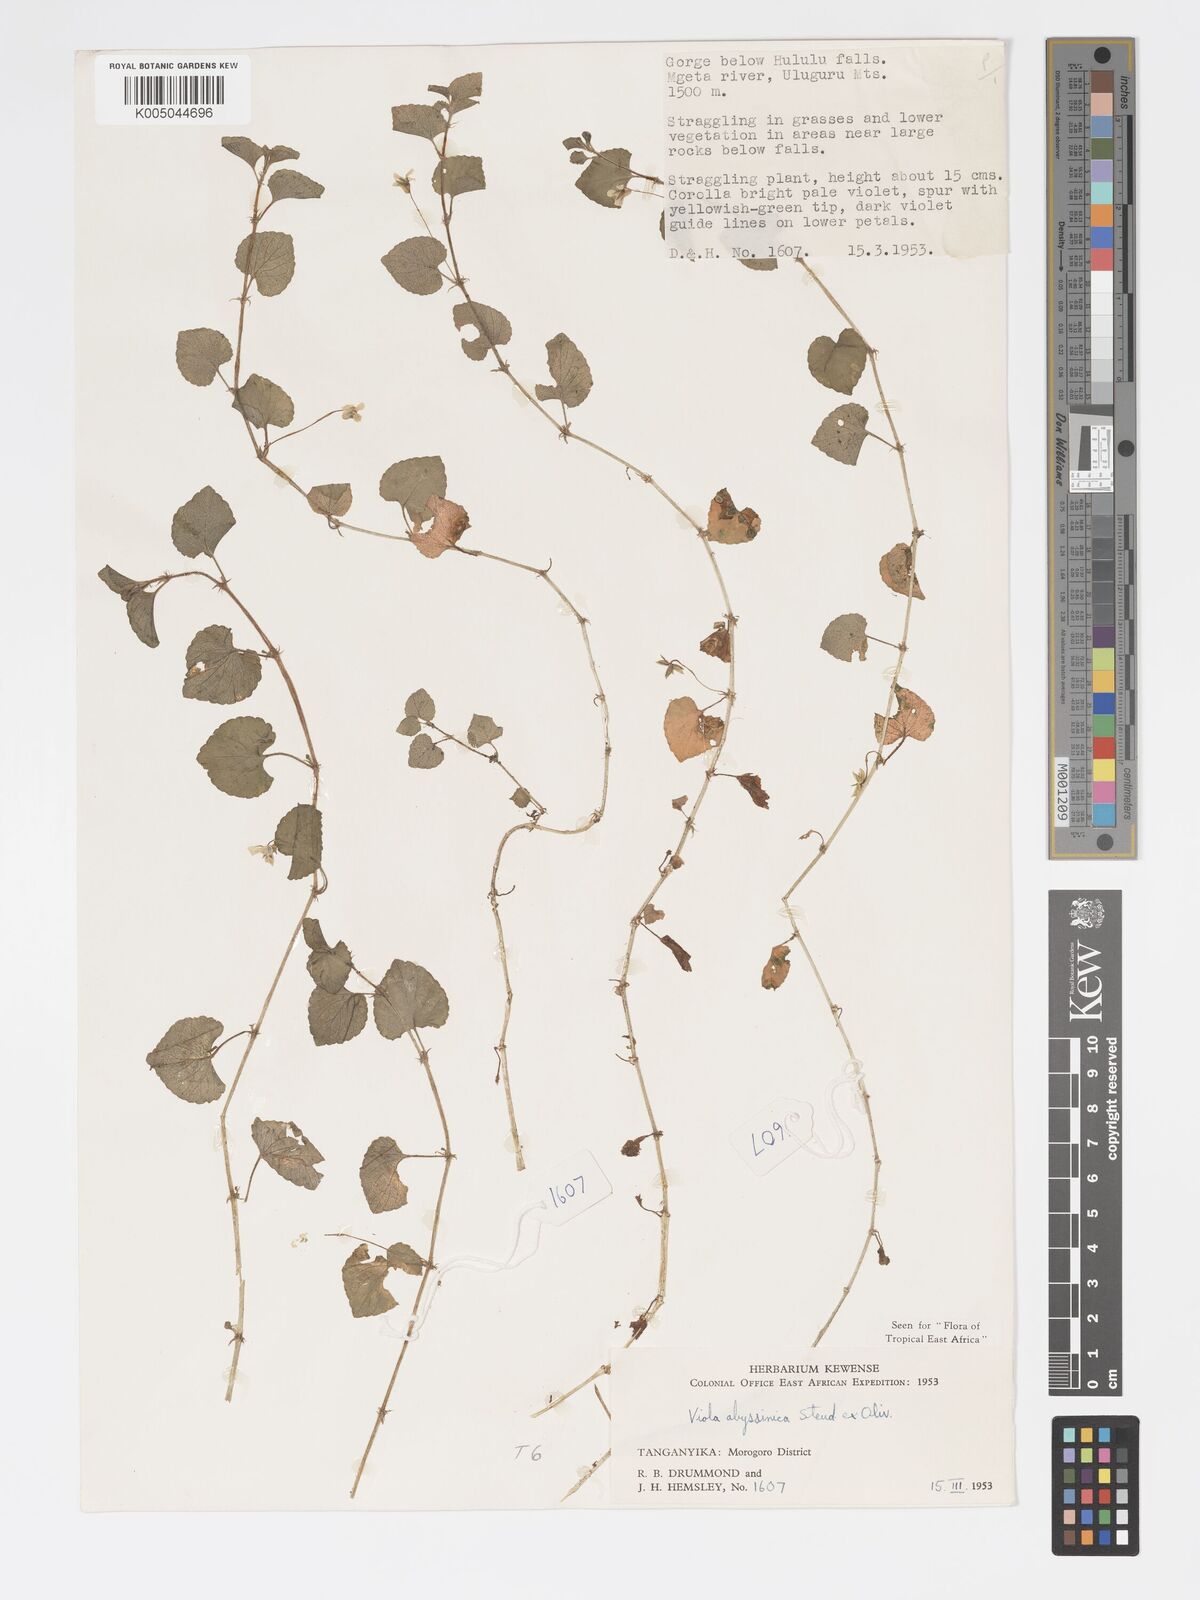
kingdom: Plantae
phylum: Tracheophyta
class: Magnoliopsida
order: Malpighiales
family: Violaceae
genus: Viola
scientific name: Viola abyssinica
